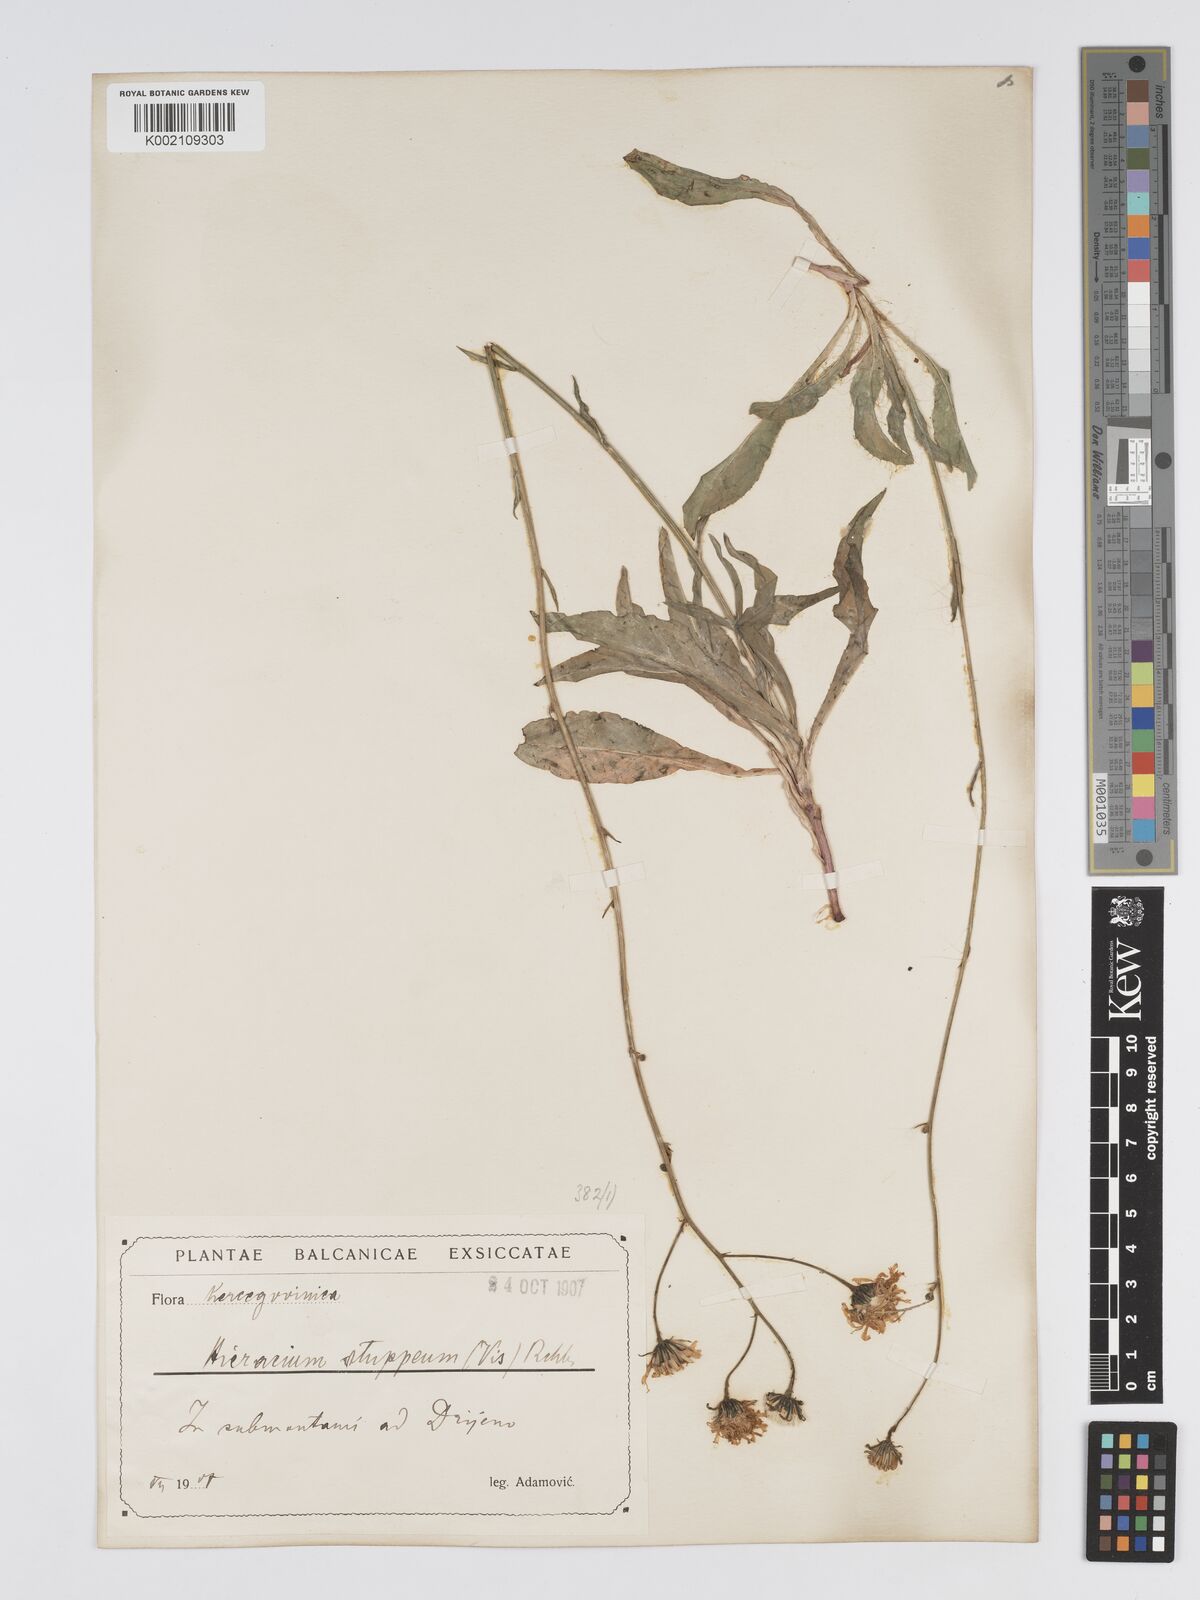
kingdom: Plantae
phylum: Tracheophyta
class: Magnoliopsida
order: Asterales
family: Asteraceae
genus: Hieracium
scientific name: Hieracium heterogynum
